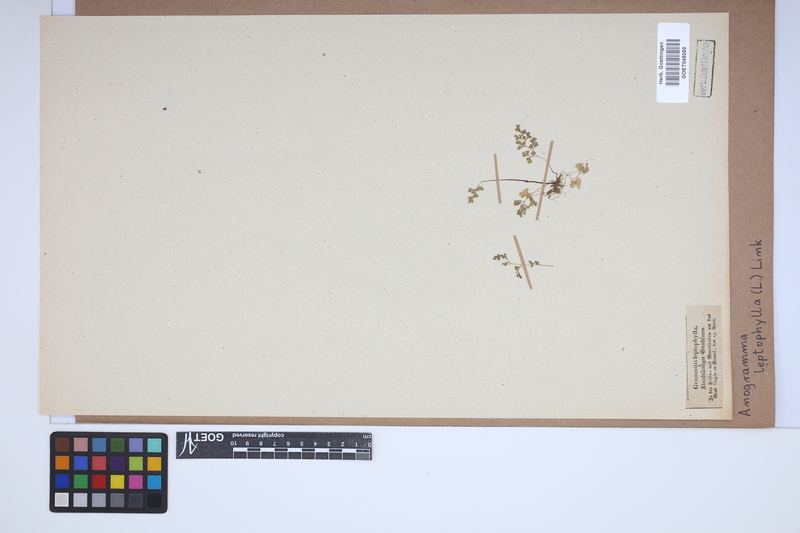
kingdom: Plantae
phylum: Tracheophyta
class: Polypodiopsida
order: Polypodiales
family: Pteridaceae
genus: Anogramma
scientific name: Anogramma leptophylla
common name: Jersey fern
